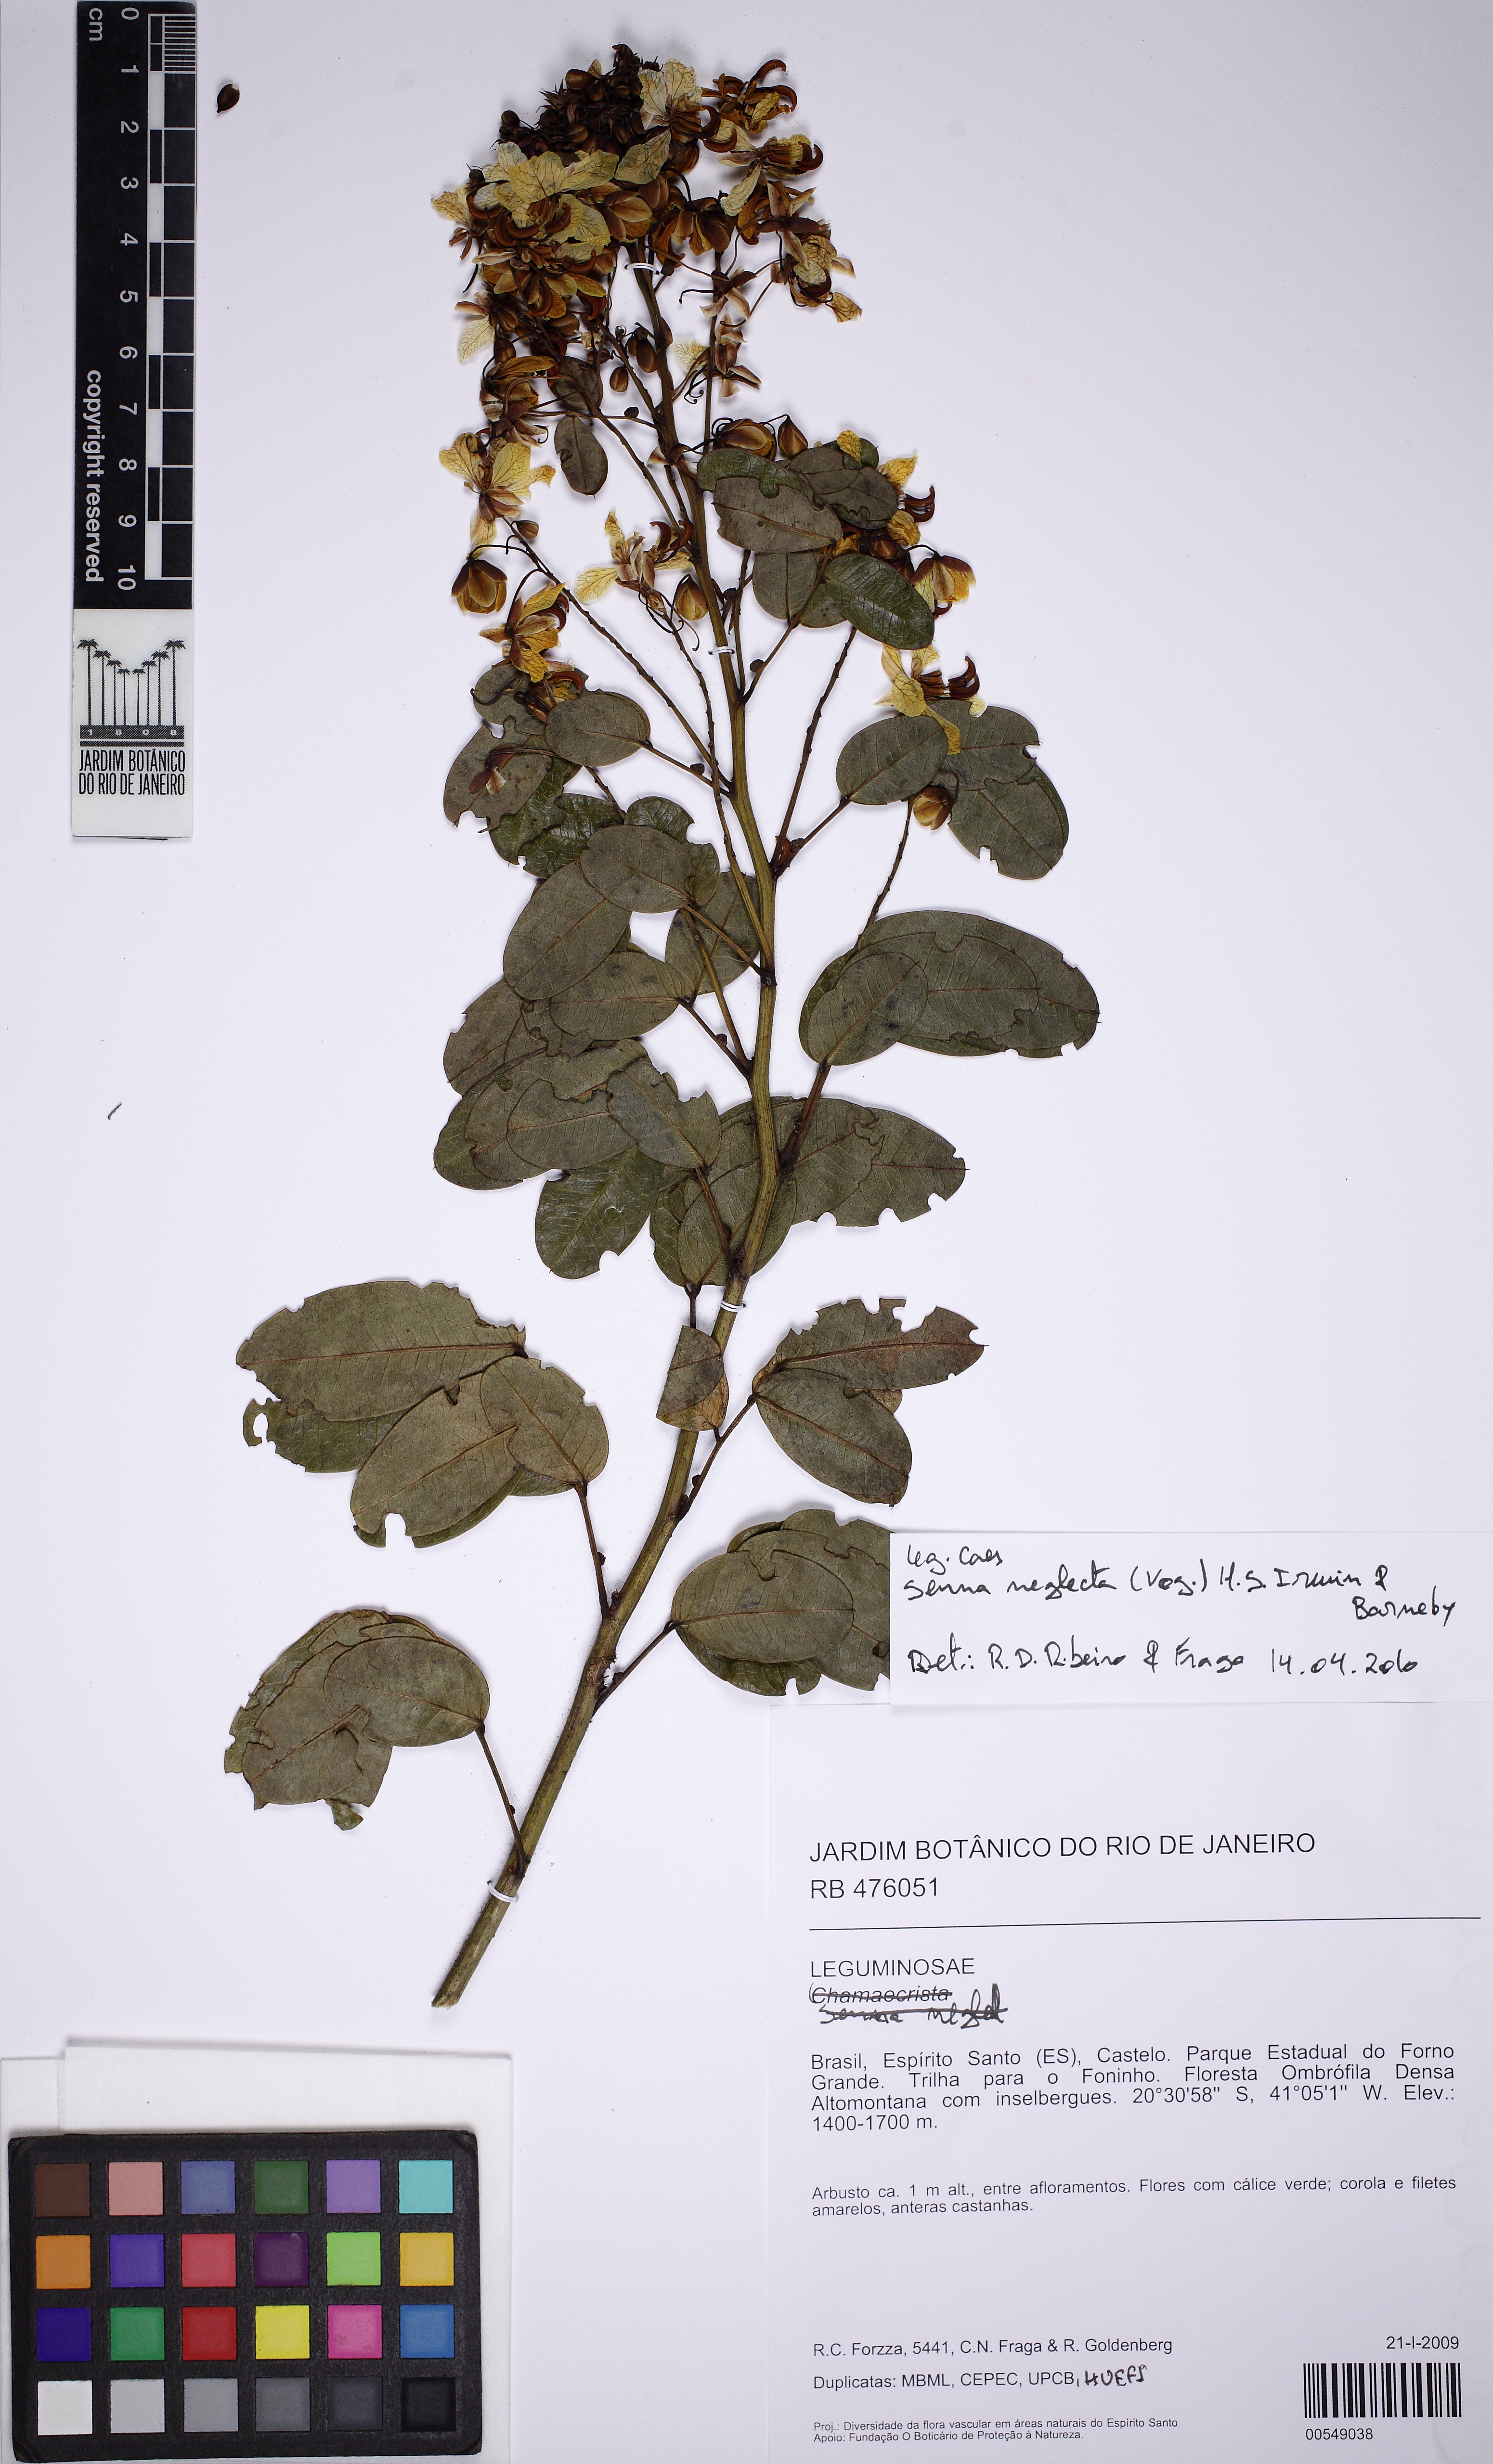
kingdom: Plantae
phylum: Tracheophyta
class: Magnoliopsida
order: Fabales
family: Fabaceae
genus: Senna
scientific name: Senna neglecta
